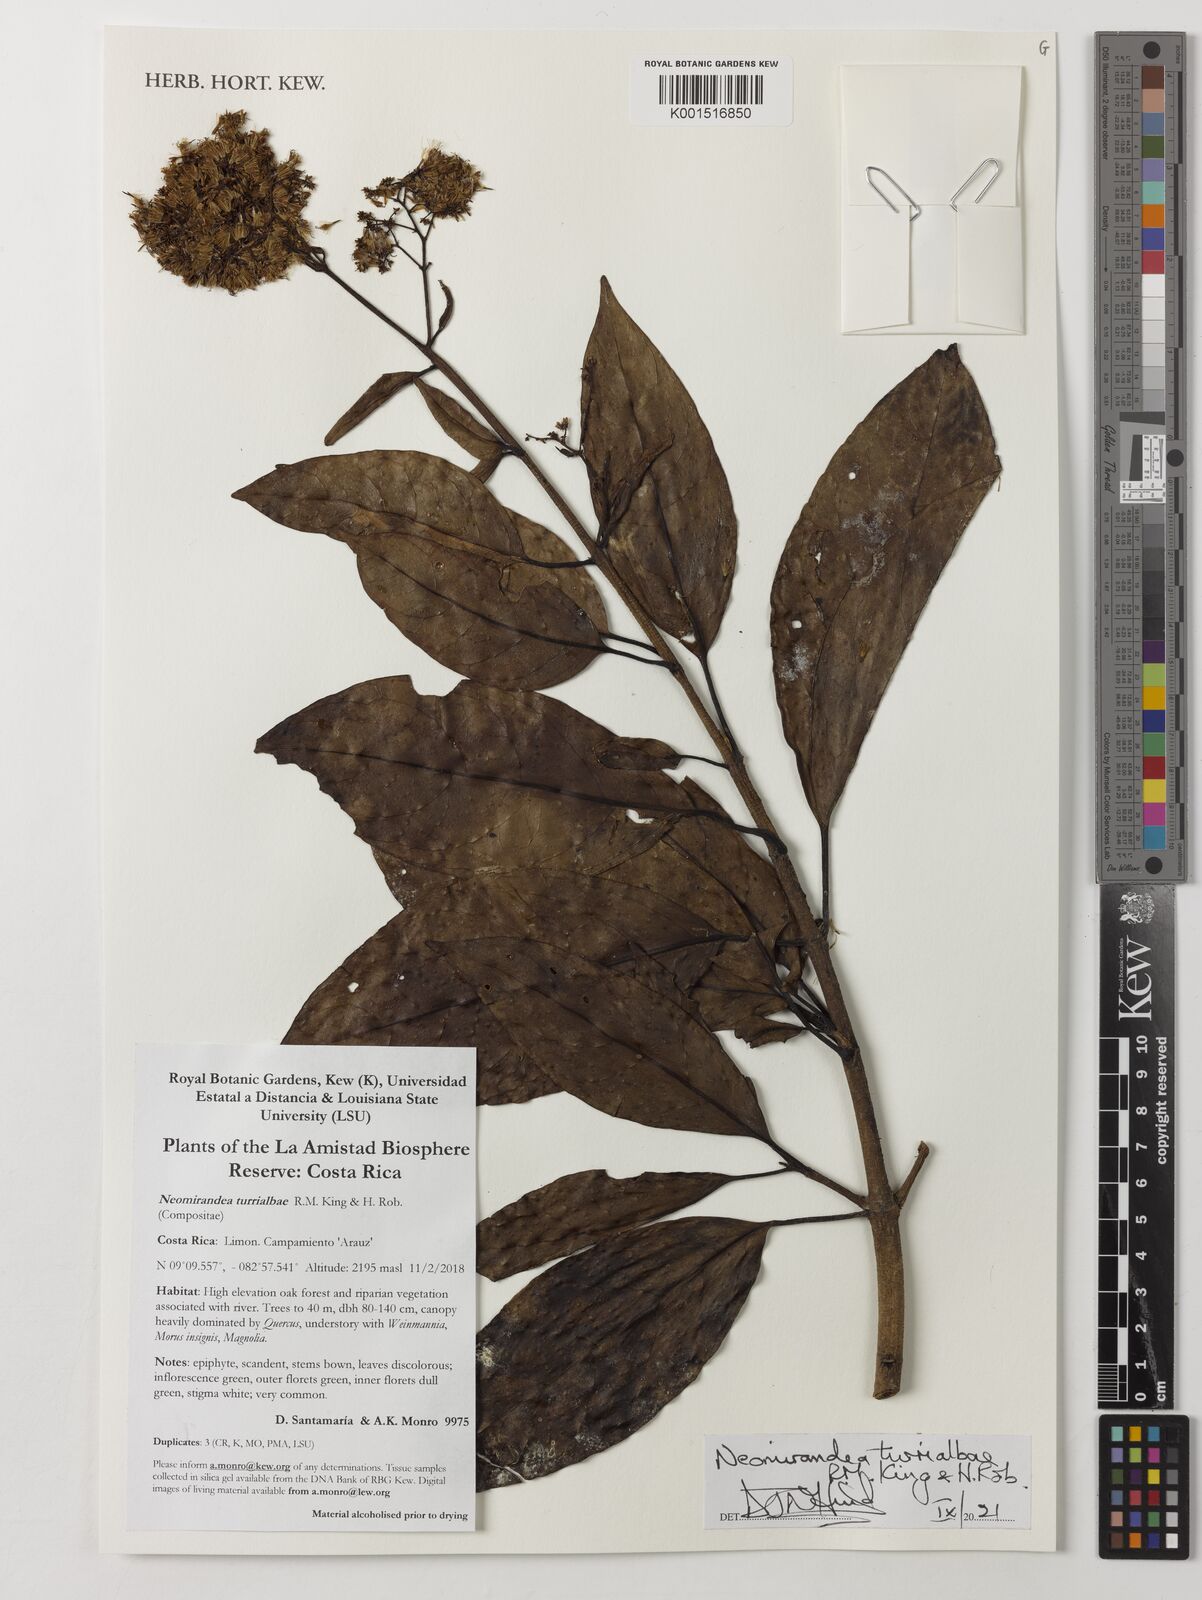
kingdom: Plantae
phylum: Tracheophyta
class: Magnoliopsida
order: Asterales
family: Asteraceae
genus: Neomirandea
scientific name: Neomirandea biflora
